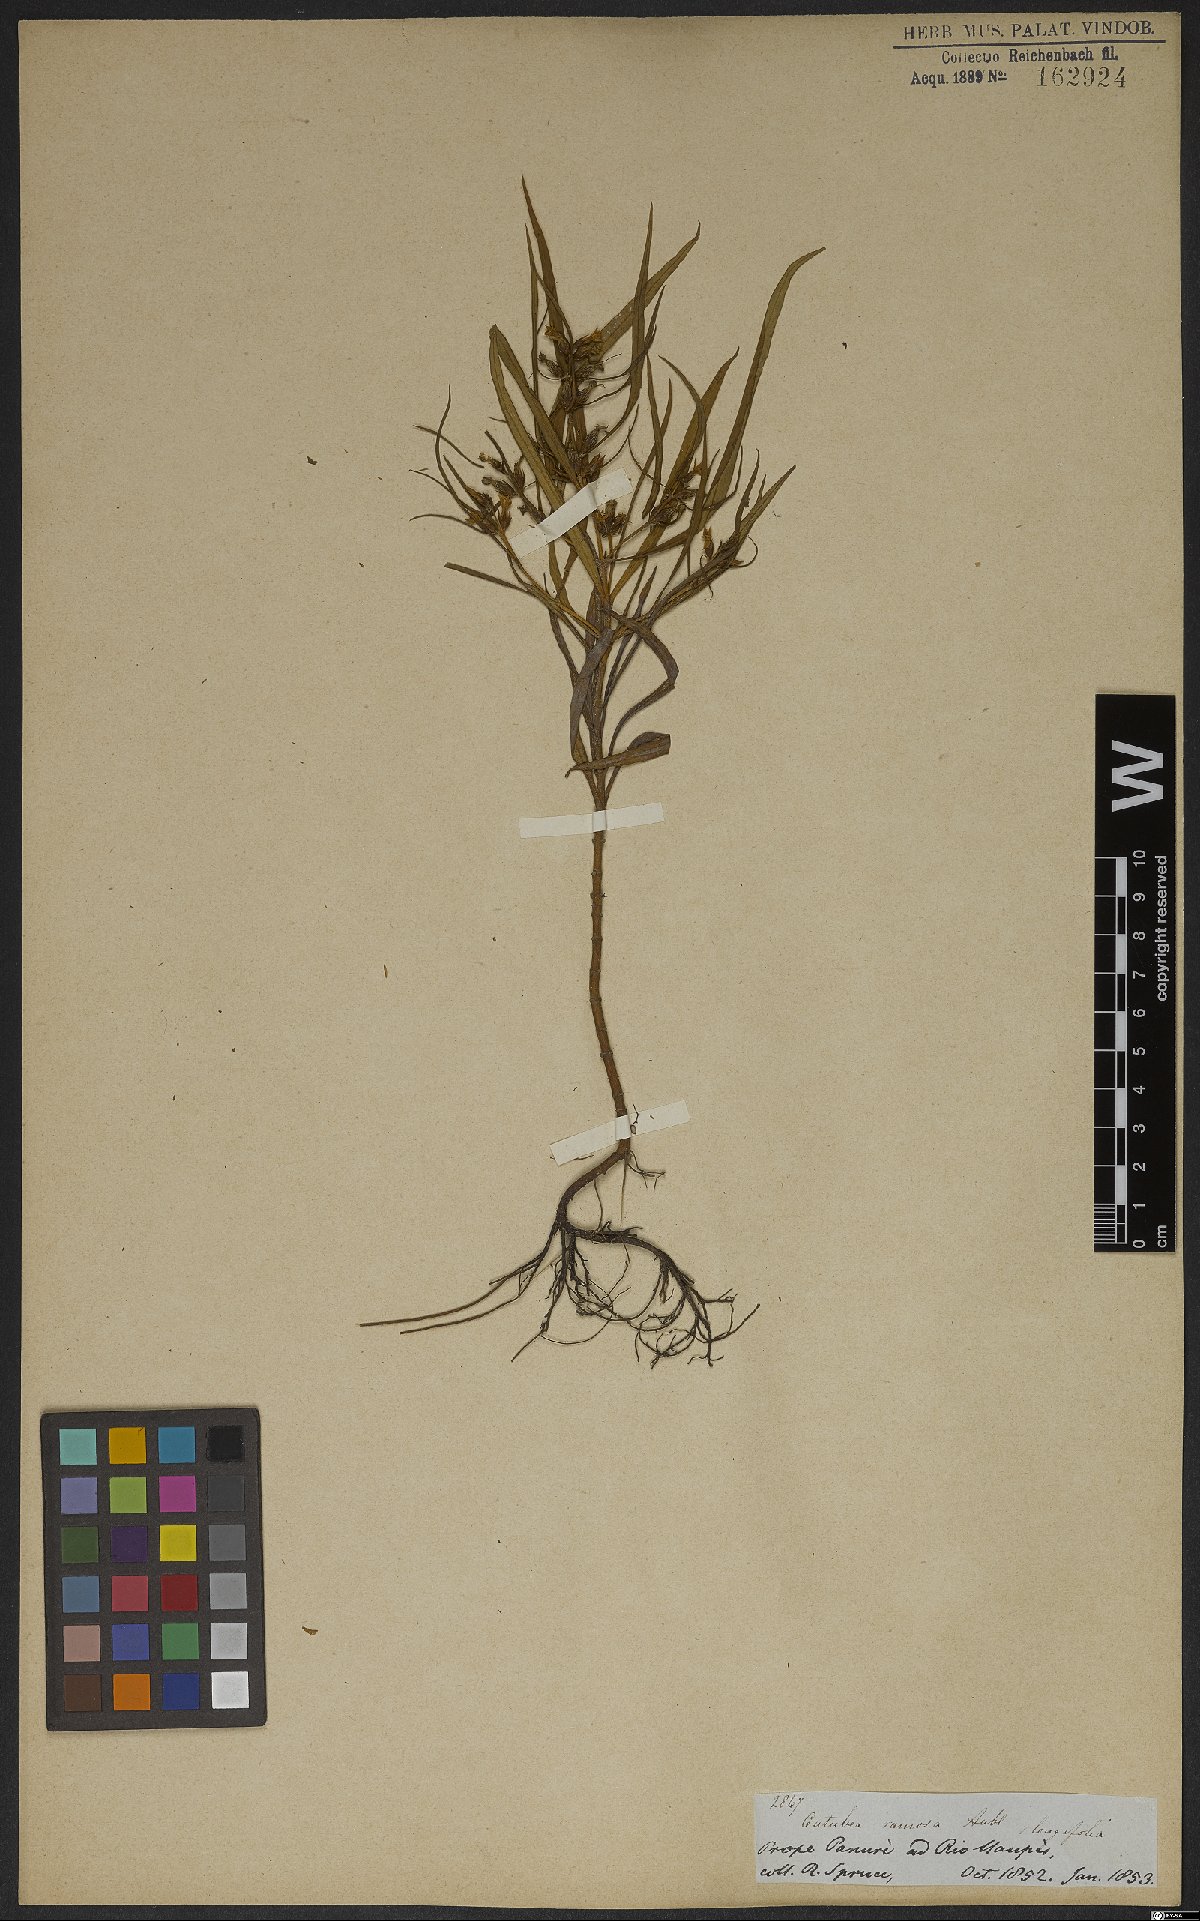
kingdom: Plantae
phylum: Tracheophyta
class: Magnoliopsida
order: Gentianales
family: Gentianaceae
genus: Coutoubea
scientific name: Coutoubea ramosa
